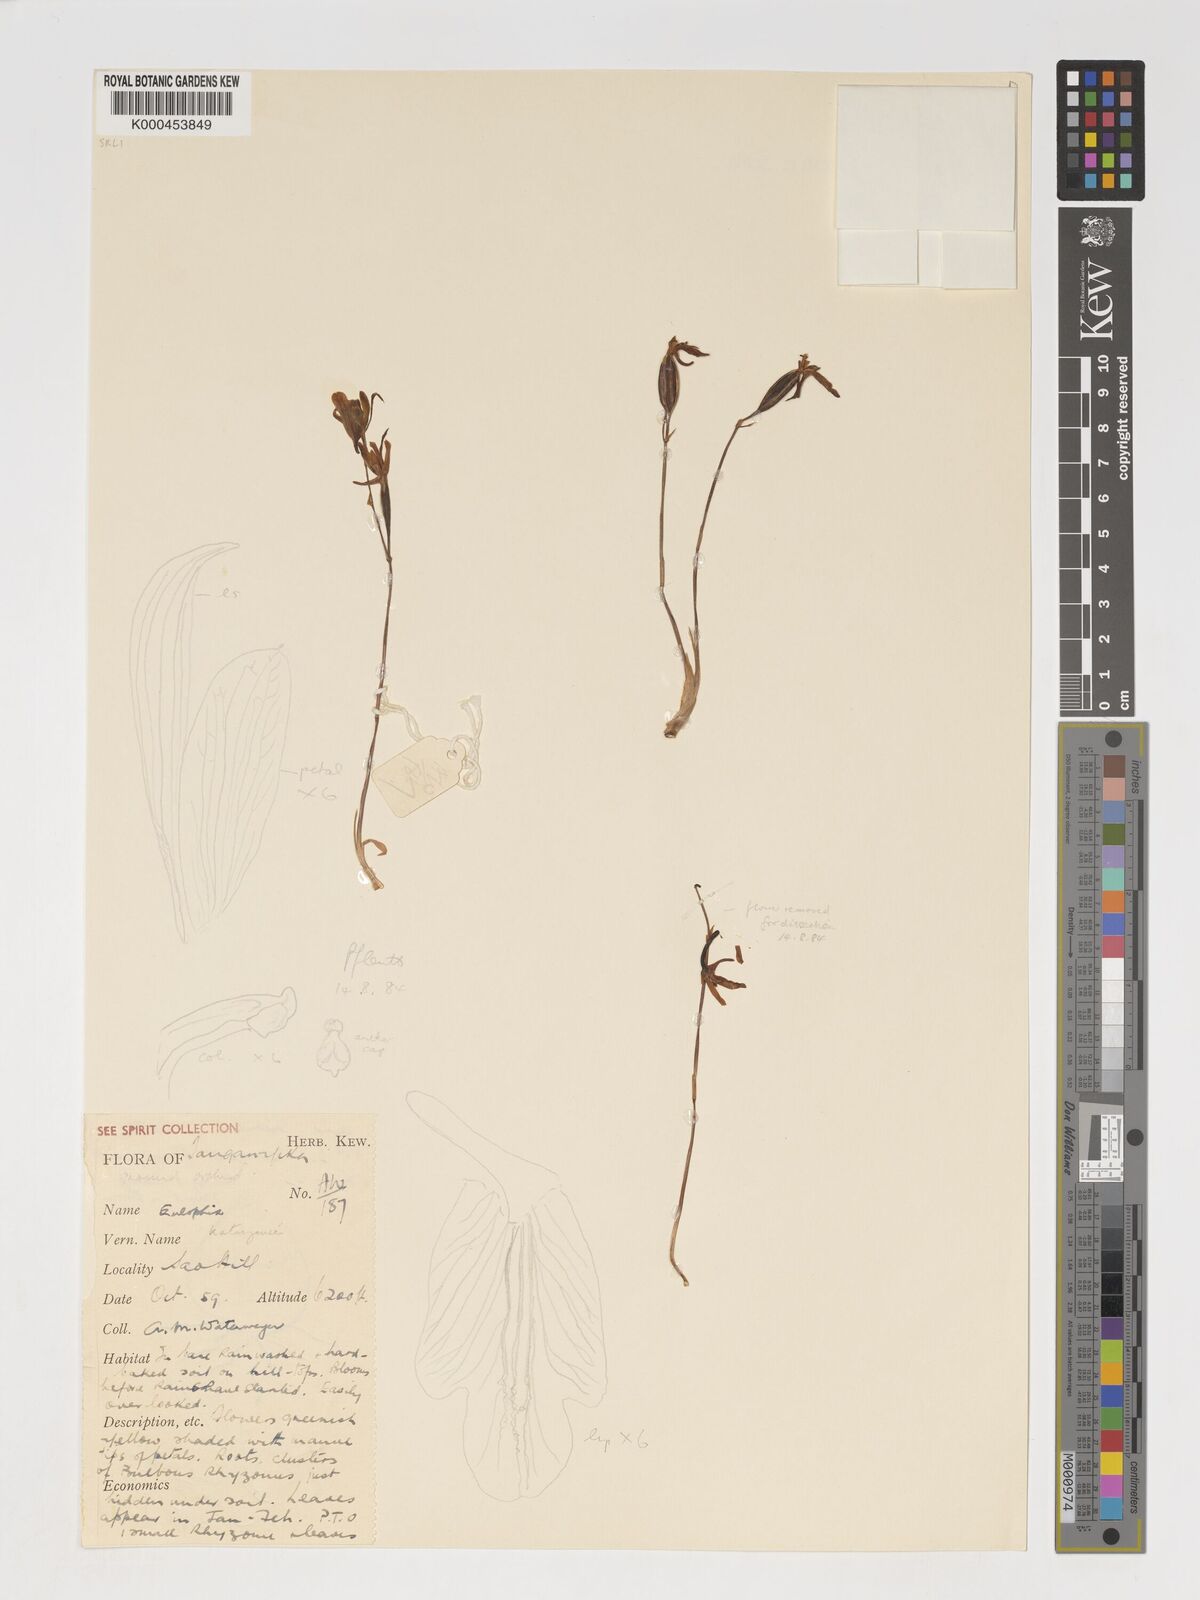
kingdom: Plantae
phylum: Tracheophyta
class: Liliopsida
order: Asparagales
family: Orchidaceae
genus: Eulophia
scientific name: Eulophia katangensis
